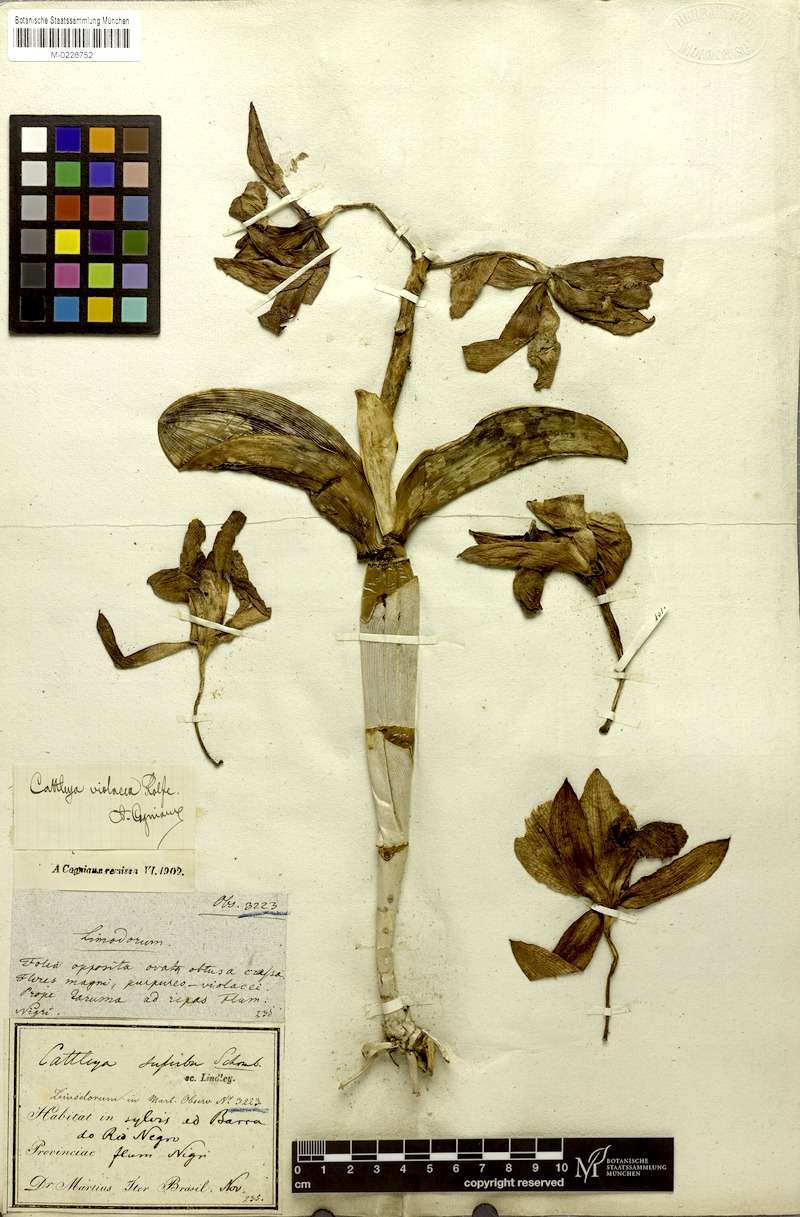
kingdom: Plantae
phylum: Tracheophyta
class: Liliopsida
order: Asparagales
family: Orchidaceae
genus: Cattleya
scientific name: Cattleya violacea
